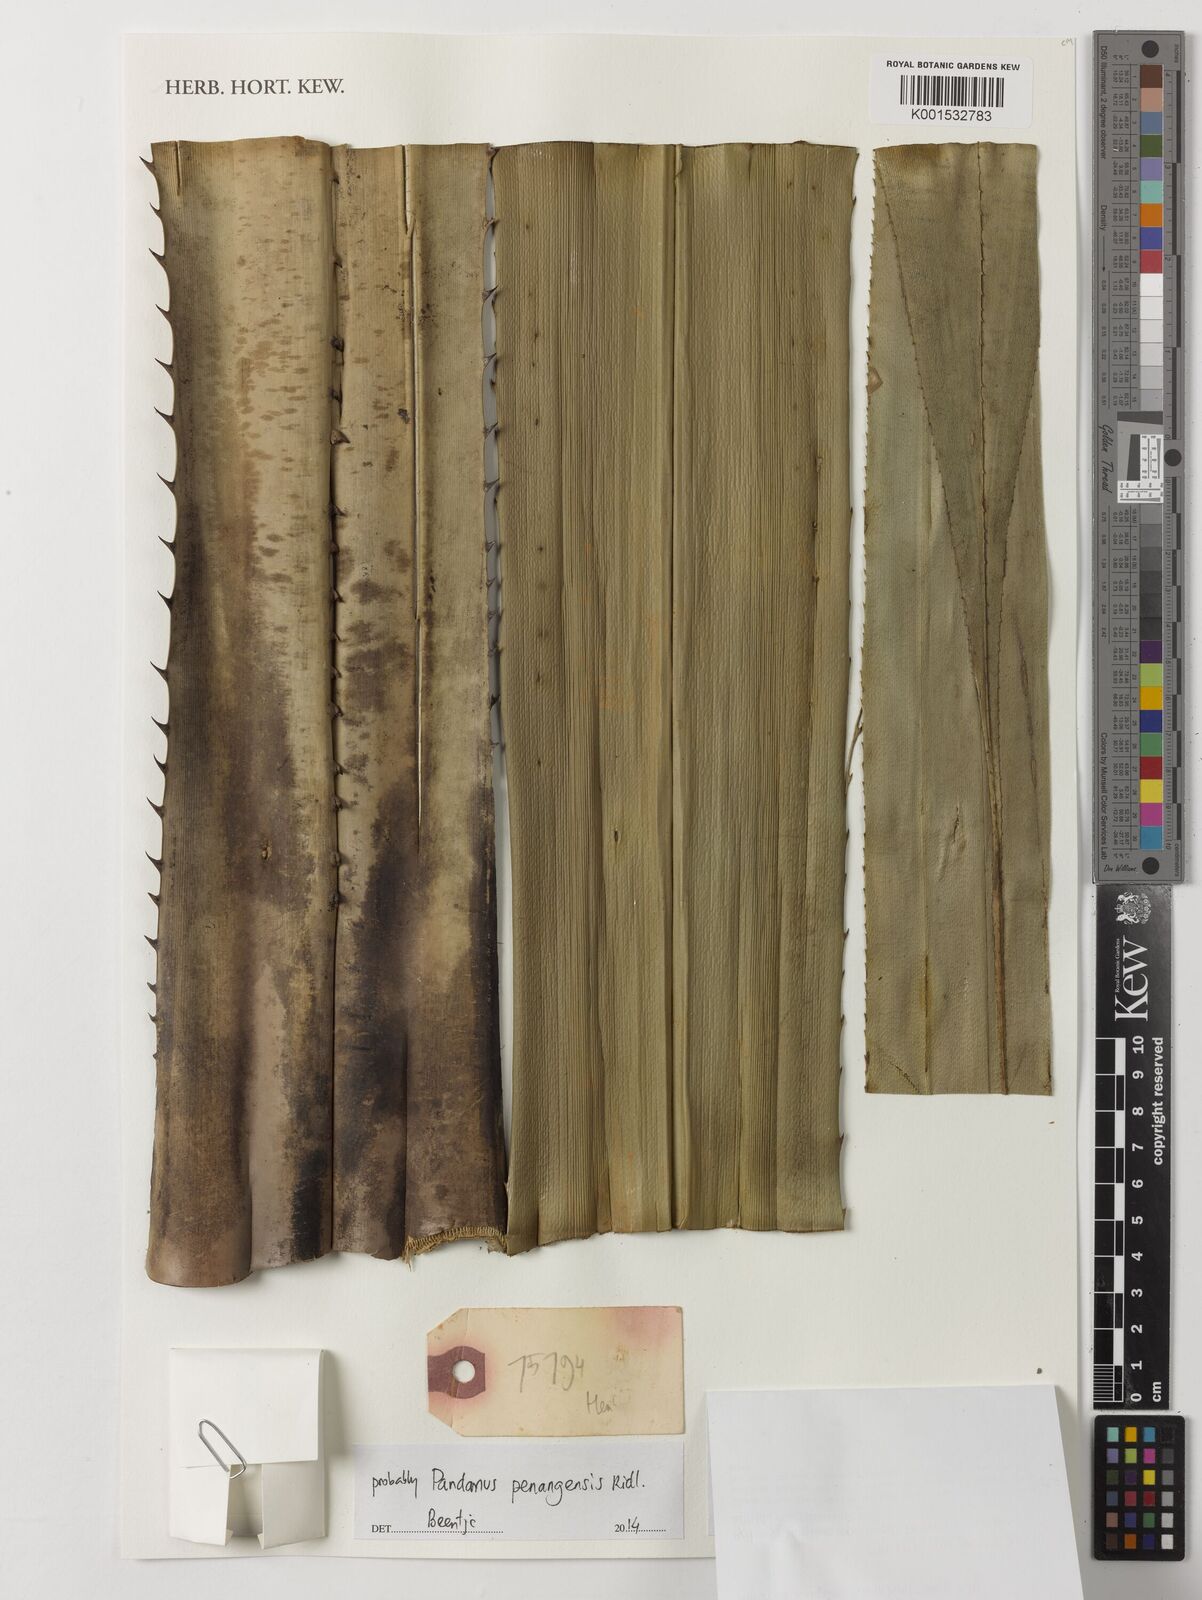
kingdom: Plantae
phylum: Tracheophyta
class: Liliopsida
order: Pandanales
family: Pandanaceae
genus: Pandanus
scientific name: Pandanus penangensis
